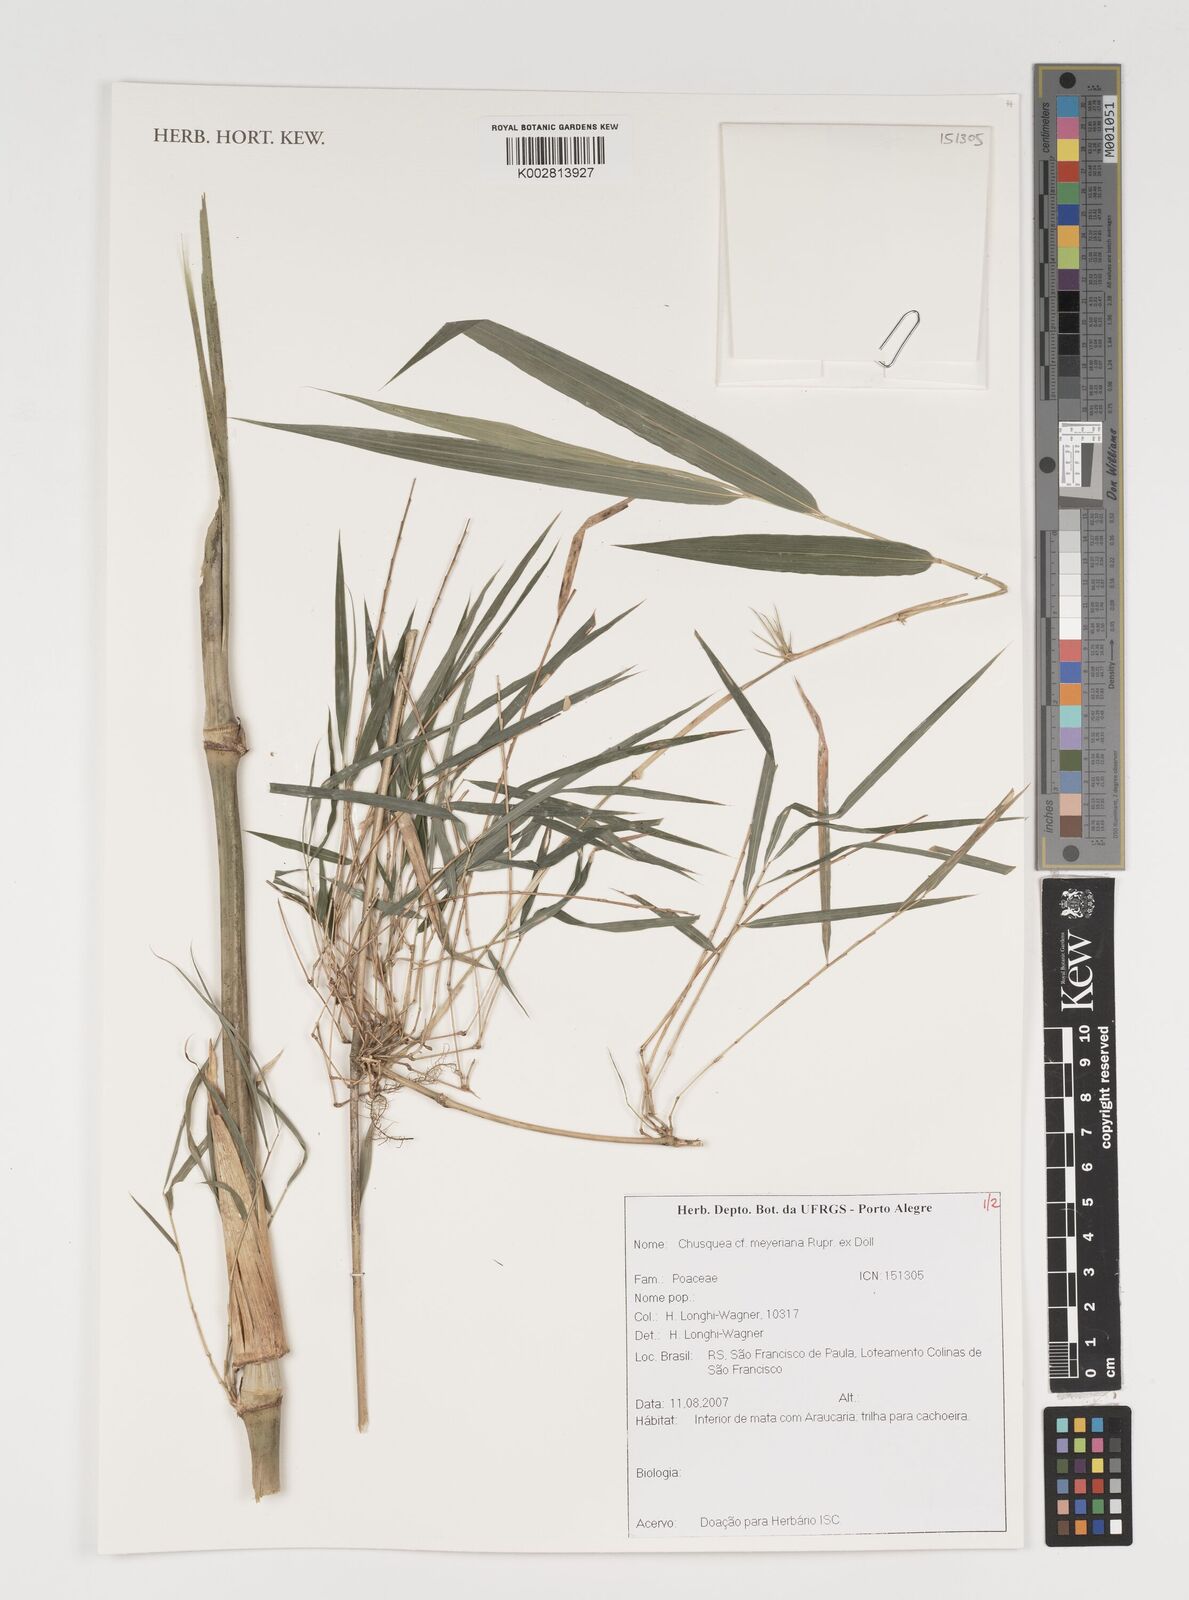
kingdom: Plantae
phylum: Tracheophyta
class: Liliopsida
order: Poales
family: Poaceae
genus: Chusquea
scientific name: Chusquea meyeriana
